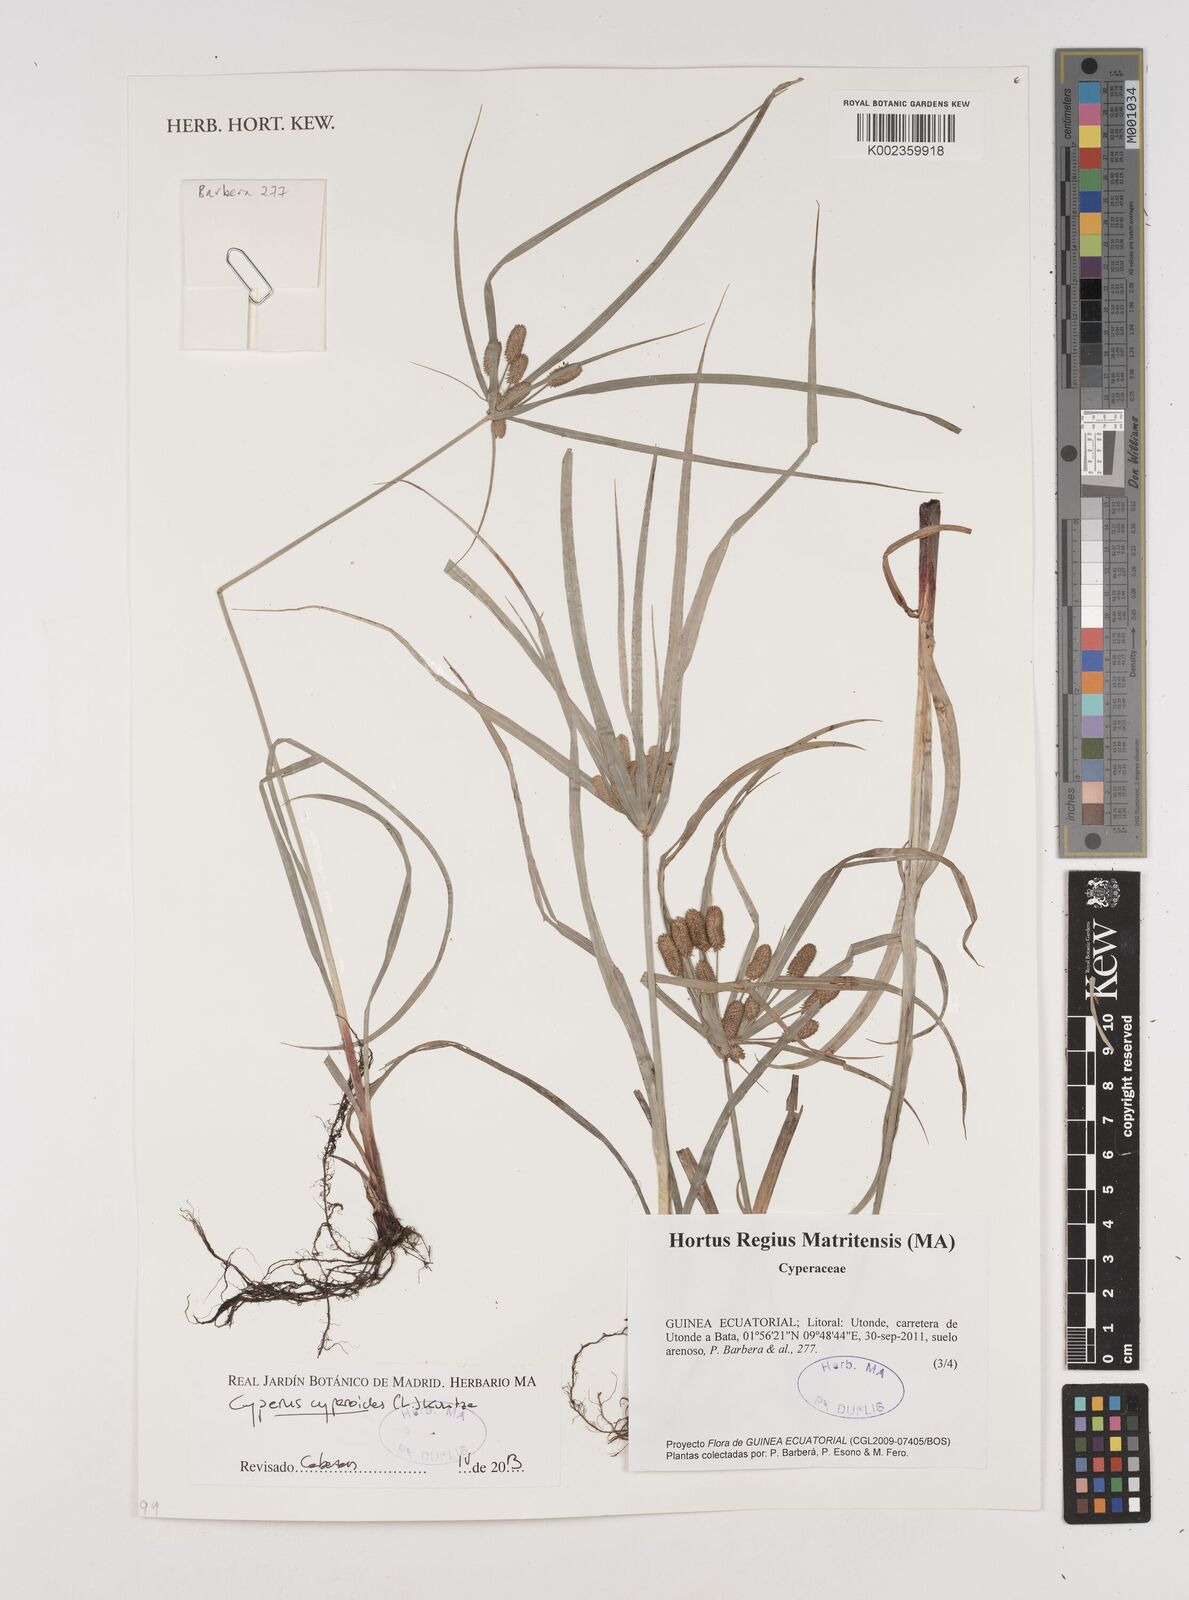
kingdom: Plantae
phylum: Tracheophyta
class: Liliopsida
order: Poales
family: Cyperaceae
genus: Cyperus
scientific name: Cyperus cyperoides
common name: Pacific island flat sedge
